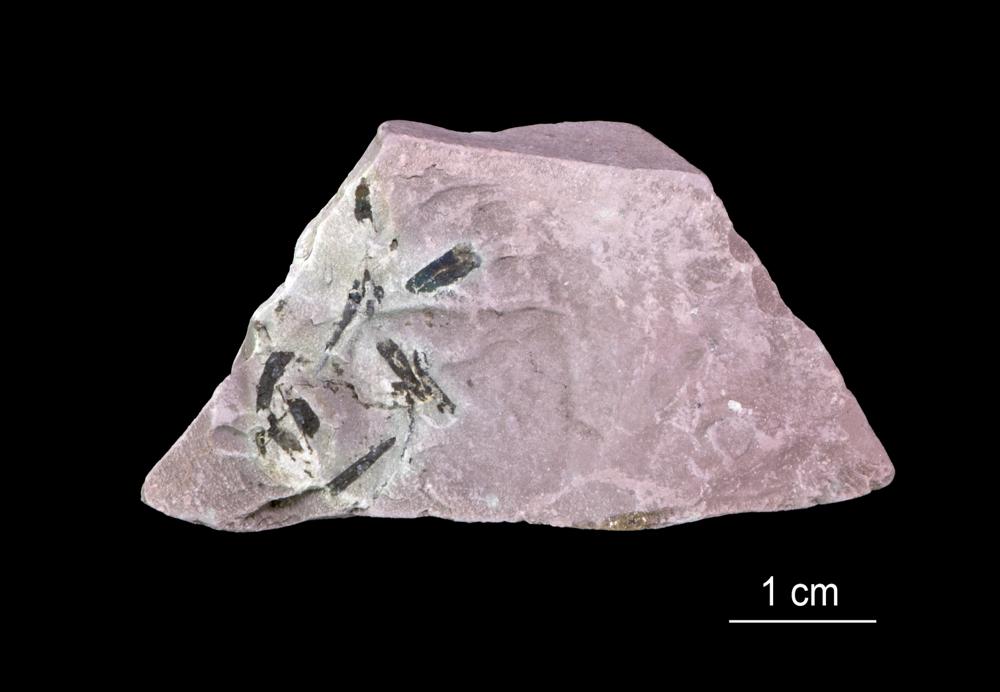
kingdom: Animalia
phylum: Annelida
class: Polychaeta
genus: Hyolithes
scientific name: Hyolithes
